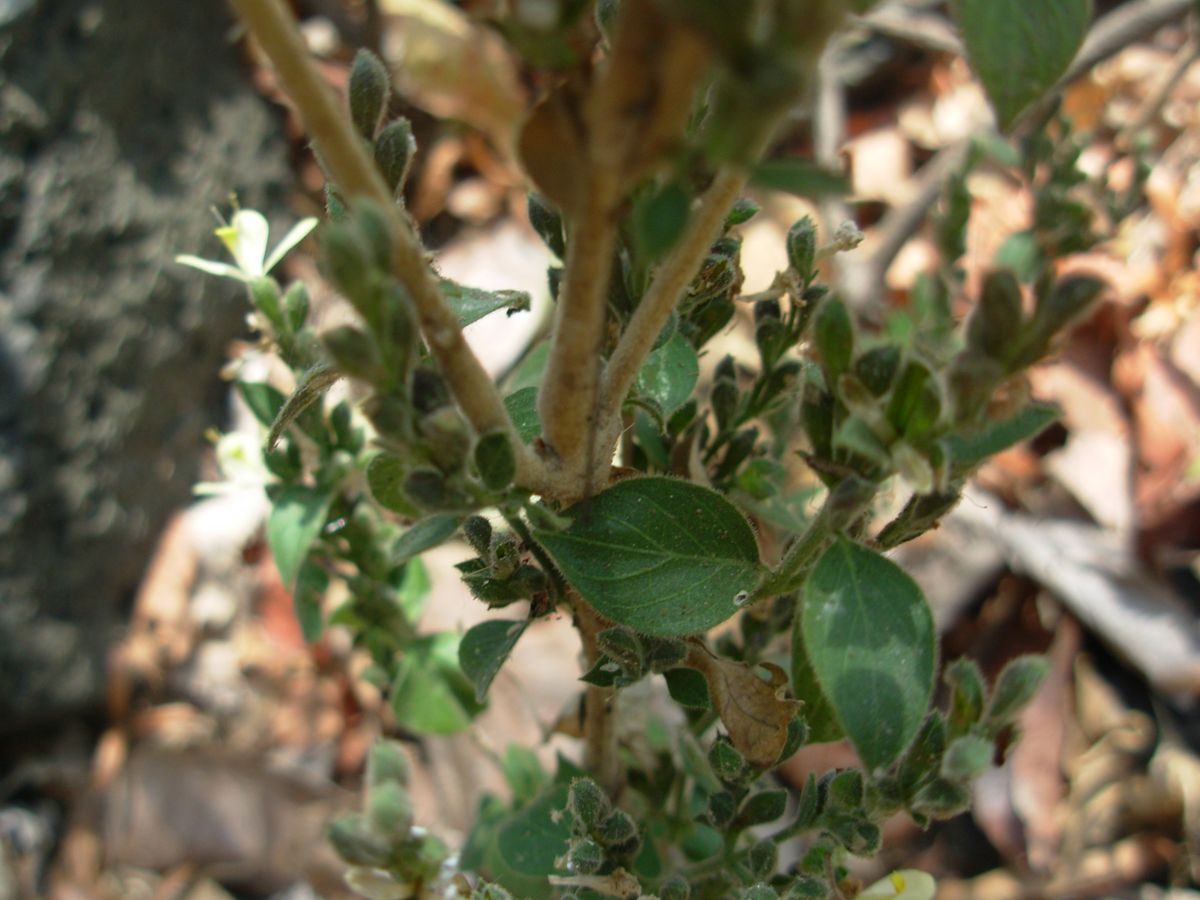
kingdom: Plantae
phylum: Tracheophyta
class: Magnoliopsida
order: Lamiales
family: Acanthaceae
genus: Henrya
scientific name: Henrya insularis
